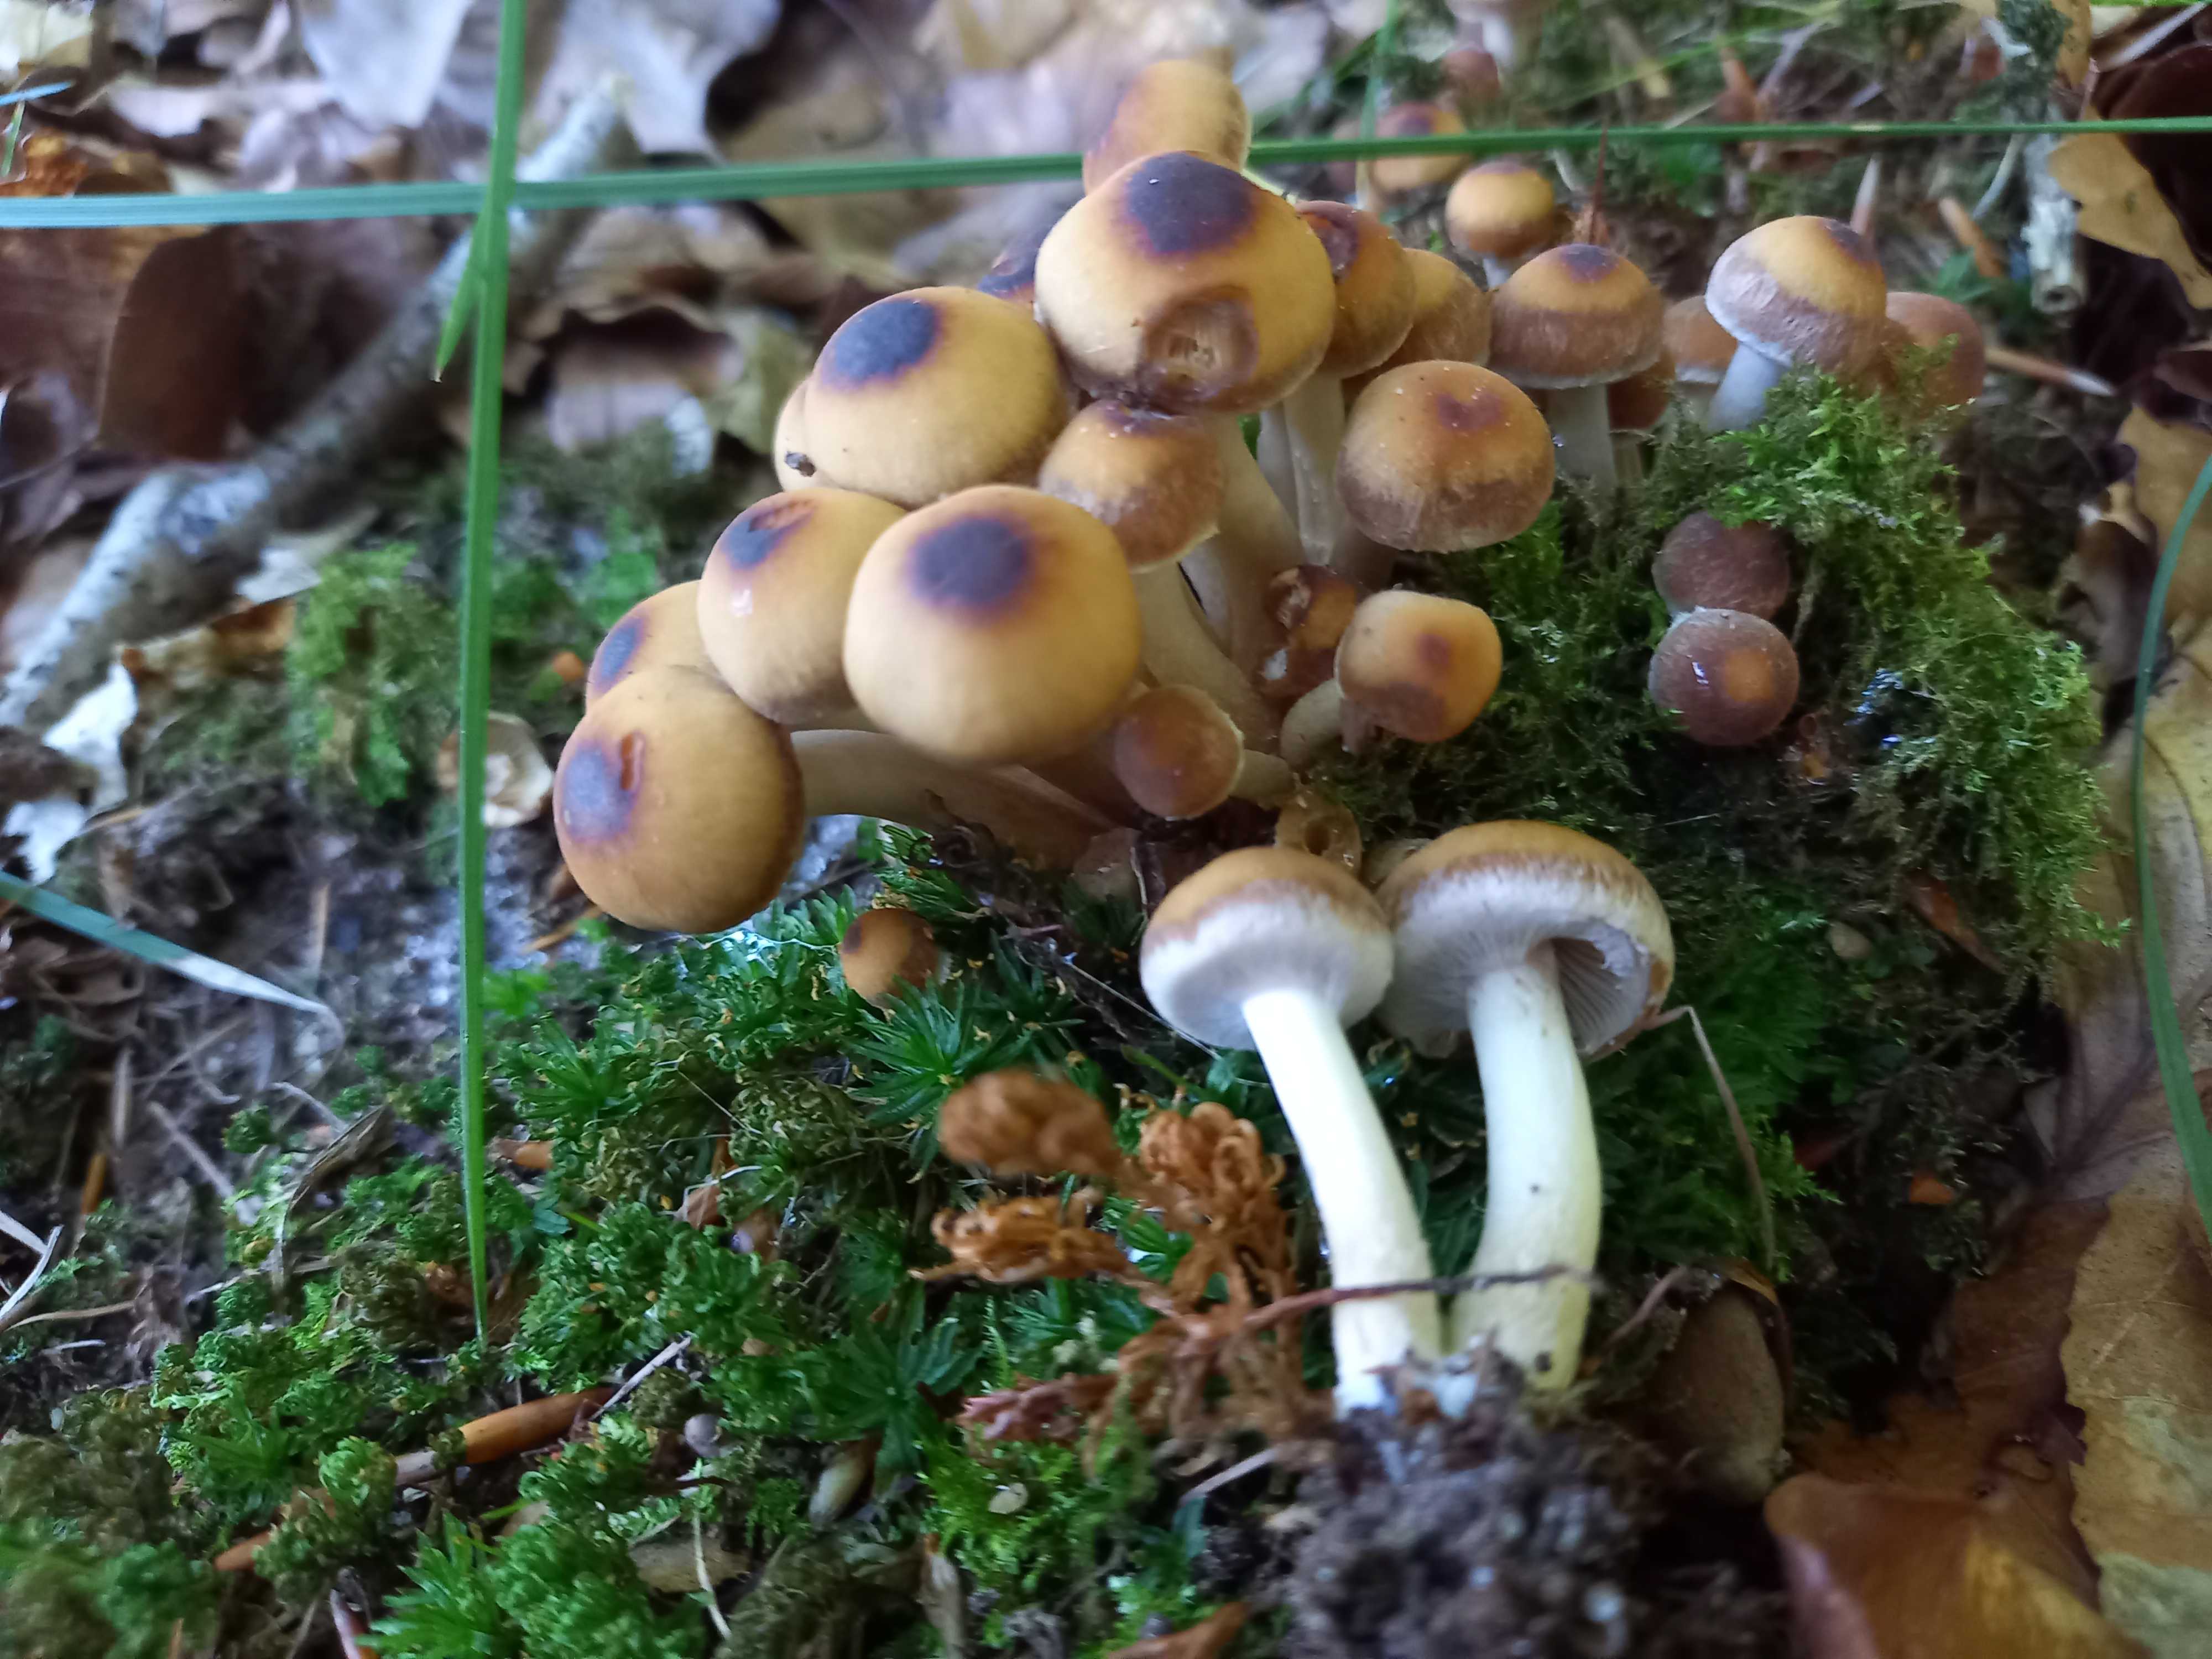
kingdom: Fungi
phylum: Basidiomycota
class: Agaricomycetes
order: Agaricales
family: Psathyrellaceae
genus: Psathyrella
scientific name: Psathyrella piluliformis
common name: lysstokket mørkhat
